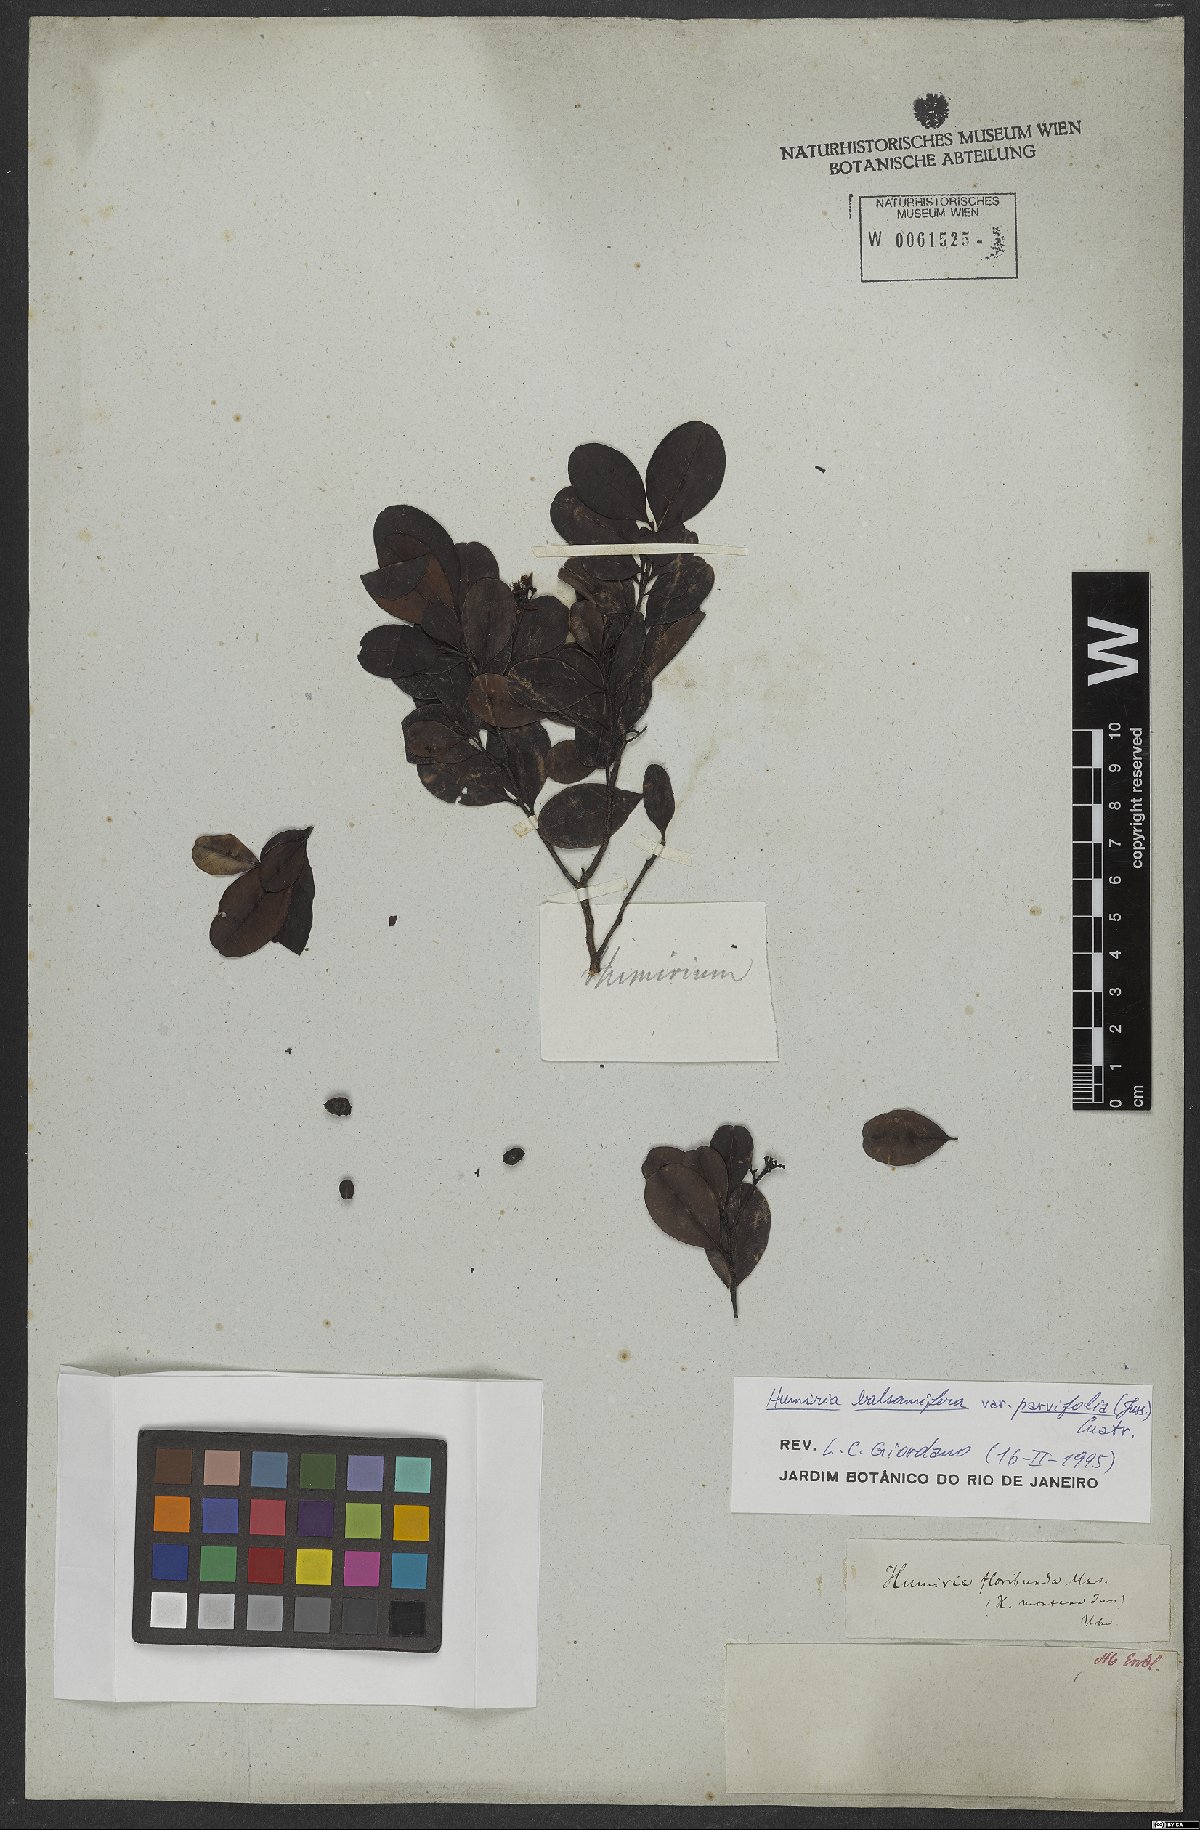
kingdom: Plantae
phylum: Tracheophyta
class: Magnoliopsida
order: Malpighiales
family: Humiriaceae
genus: Humiria
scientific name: Humiria parvifolia
